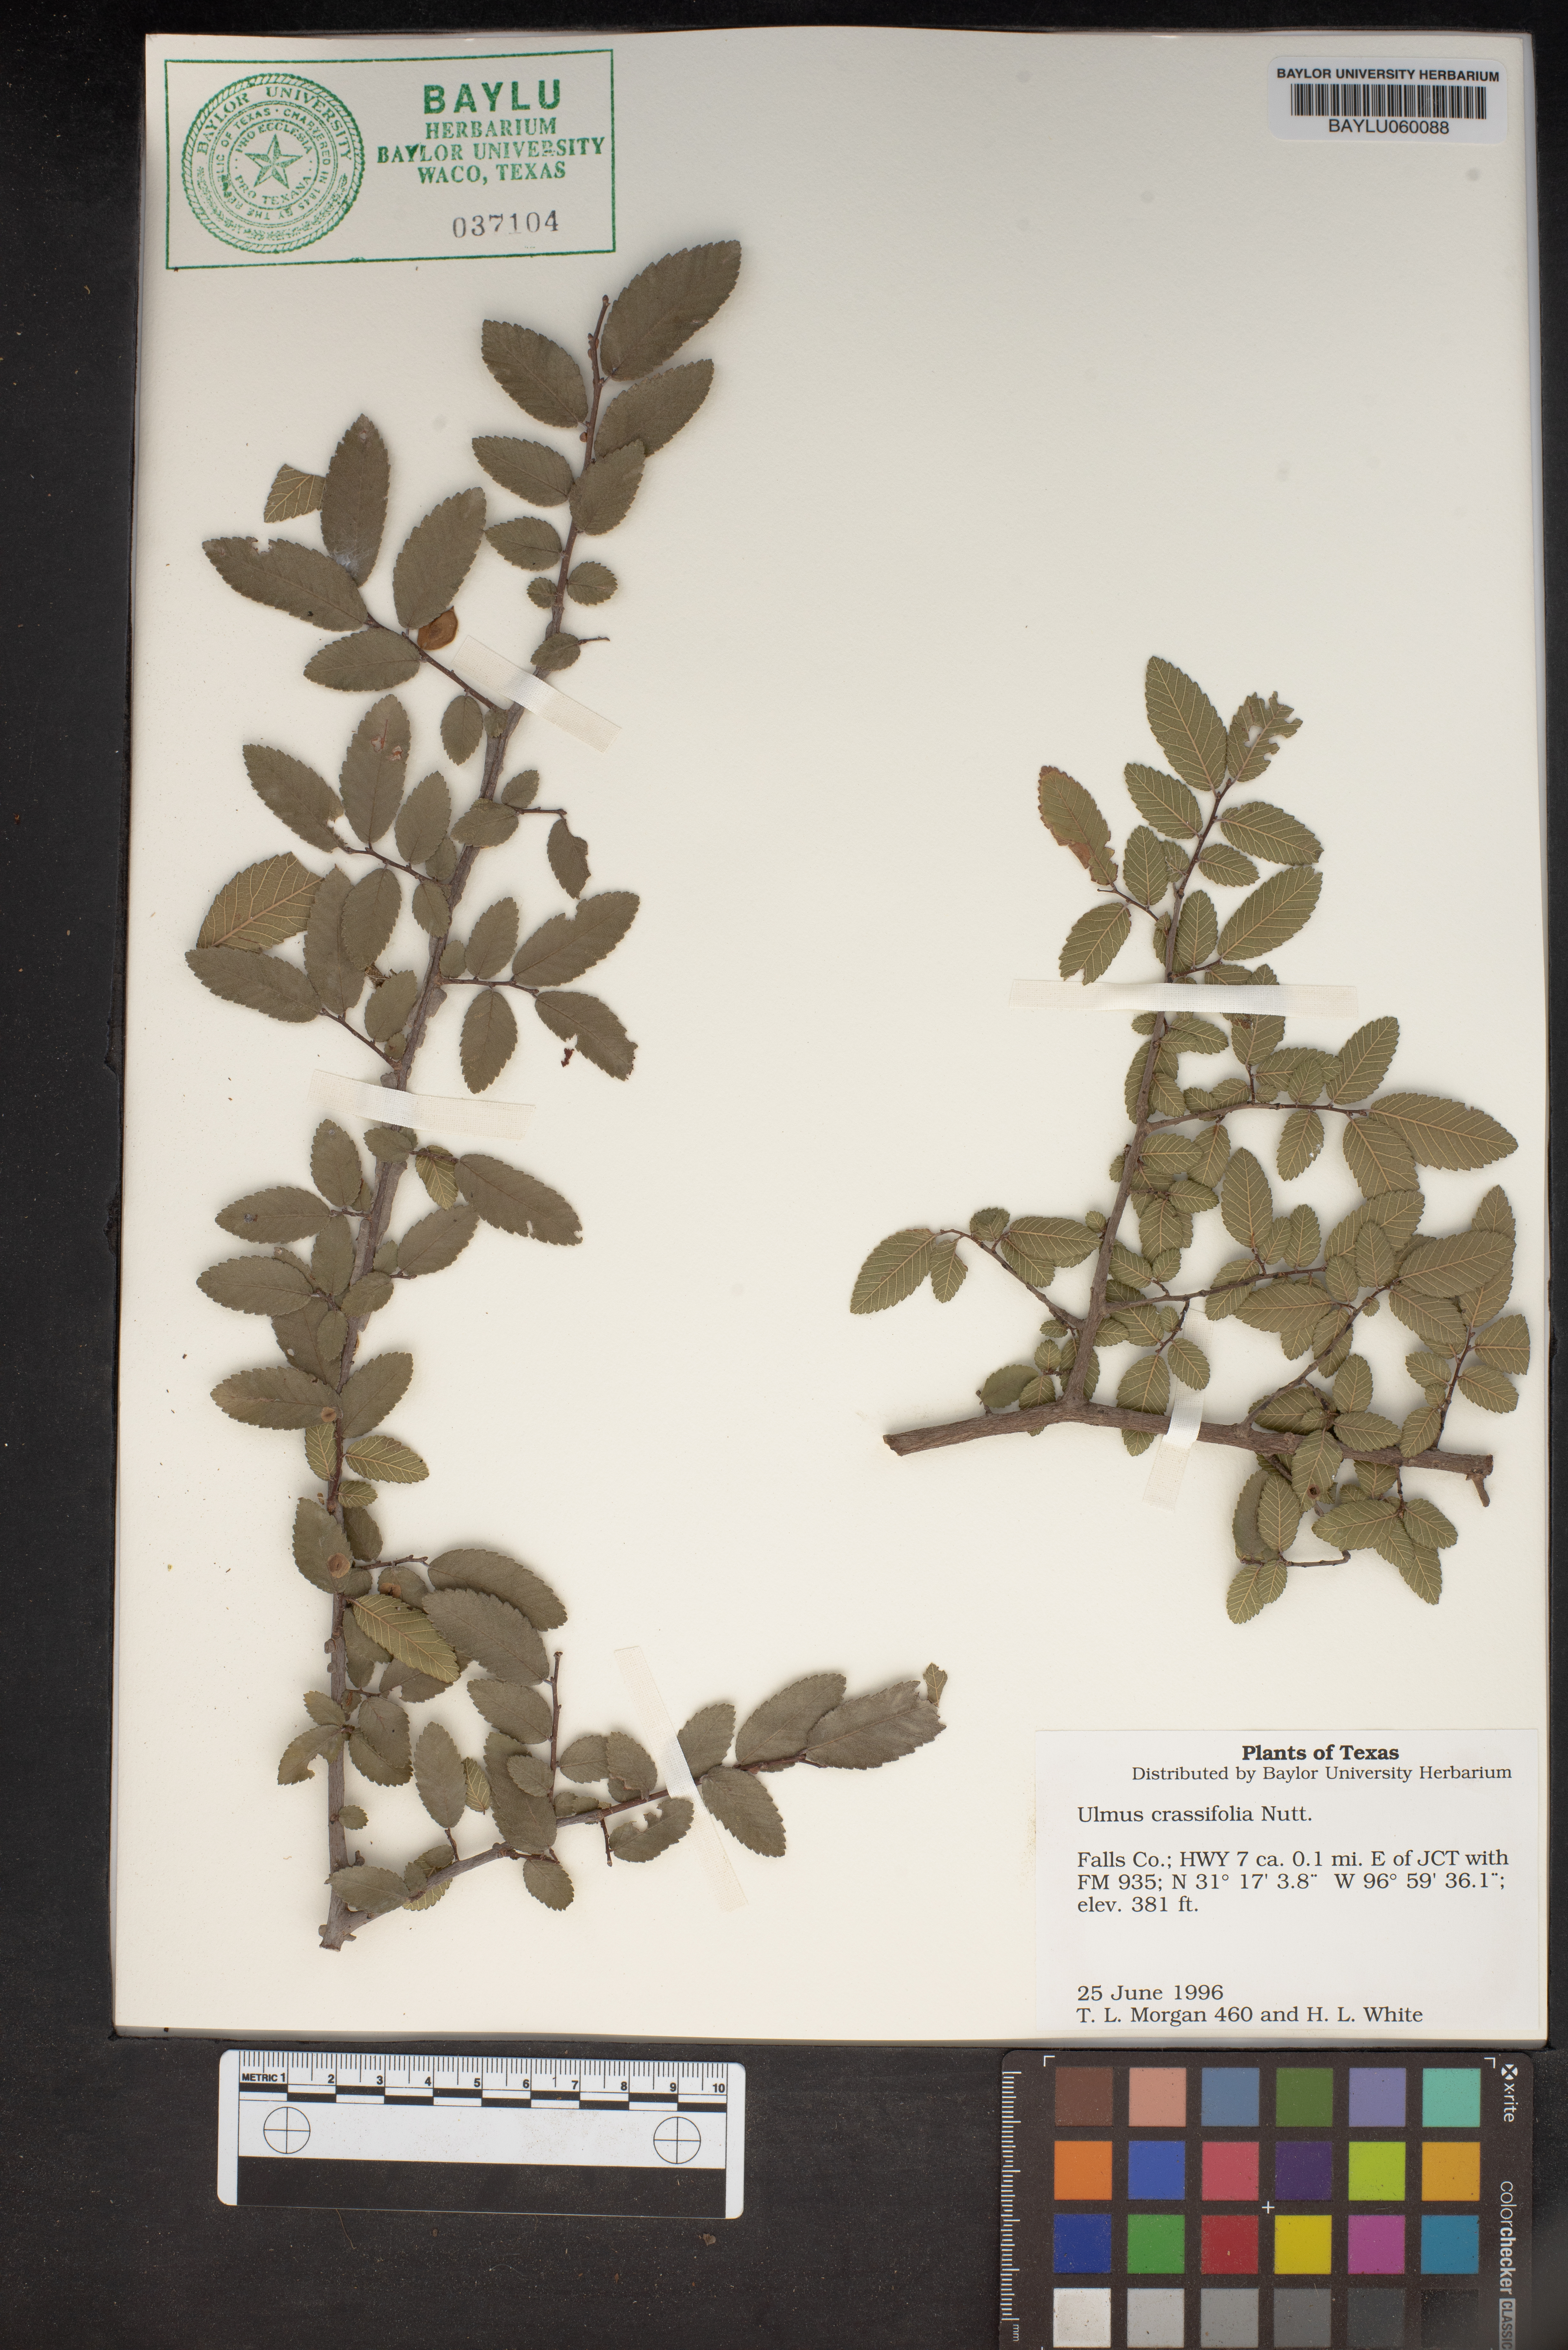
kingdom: Plantae
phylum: Tracheophyta
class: Magnoliopsida
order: Rosales
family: Ulmaceae
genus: Ulmus
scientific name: Ulmus crassifolia
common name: Basket elm
